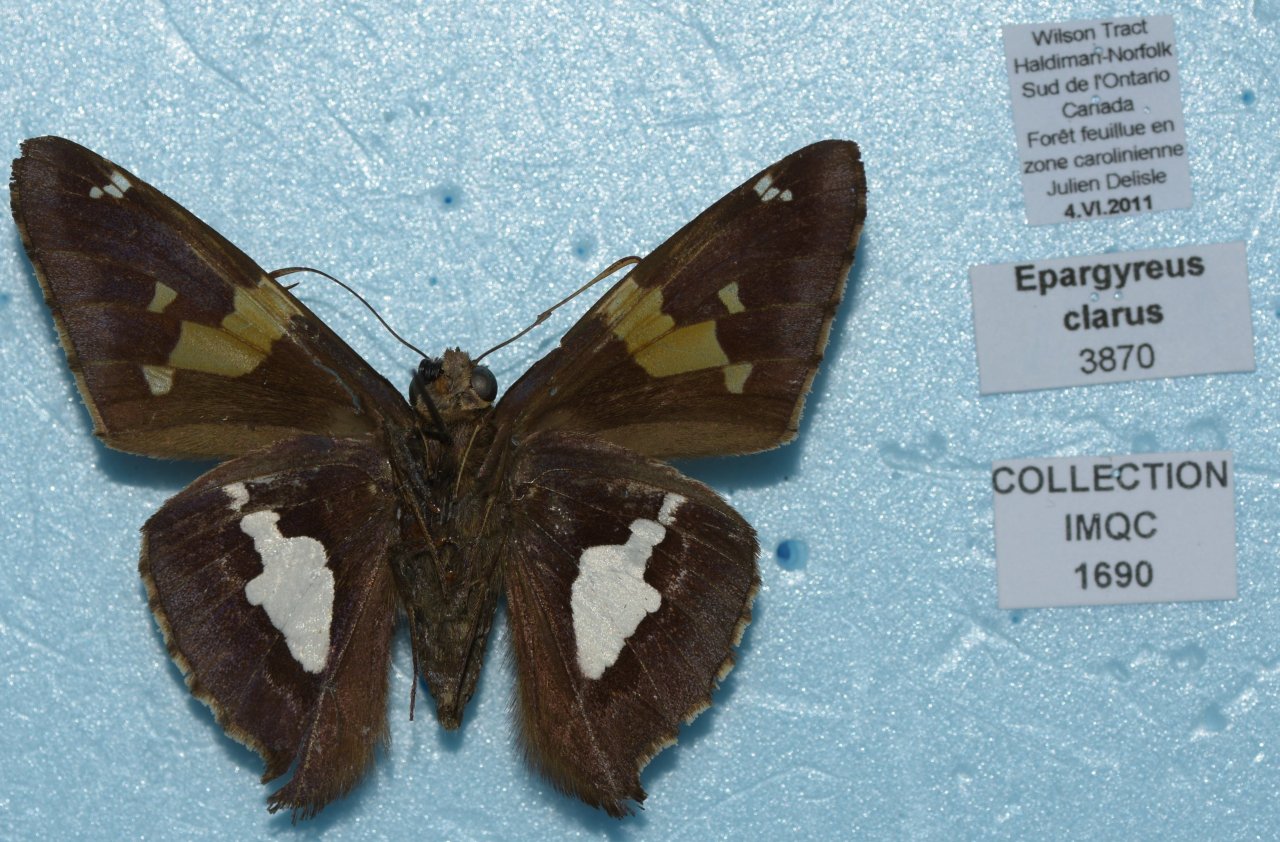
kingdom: Animalia
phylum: Arthropoda
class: Insecta
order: Lepidoptera
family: Hesperiidae
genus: Epargyreus
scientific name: Epargyreus clarus
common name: Silver-spotted Skipper
